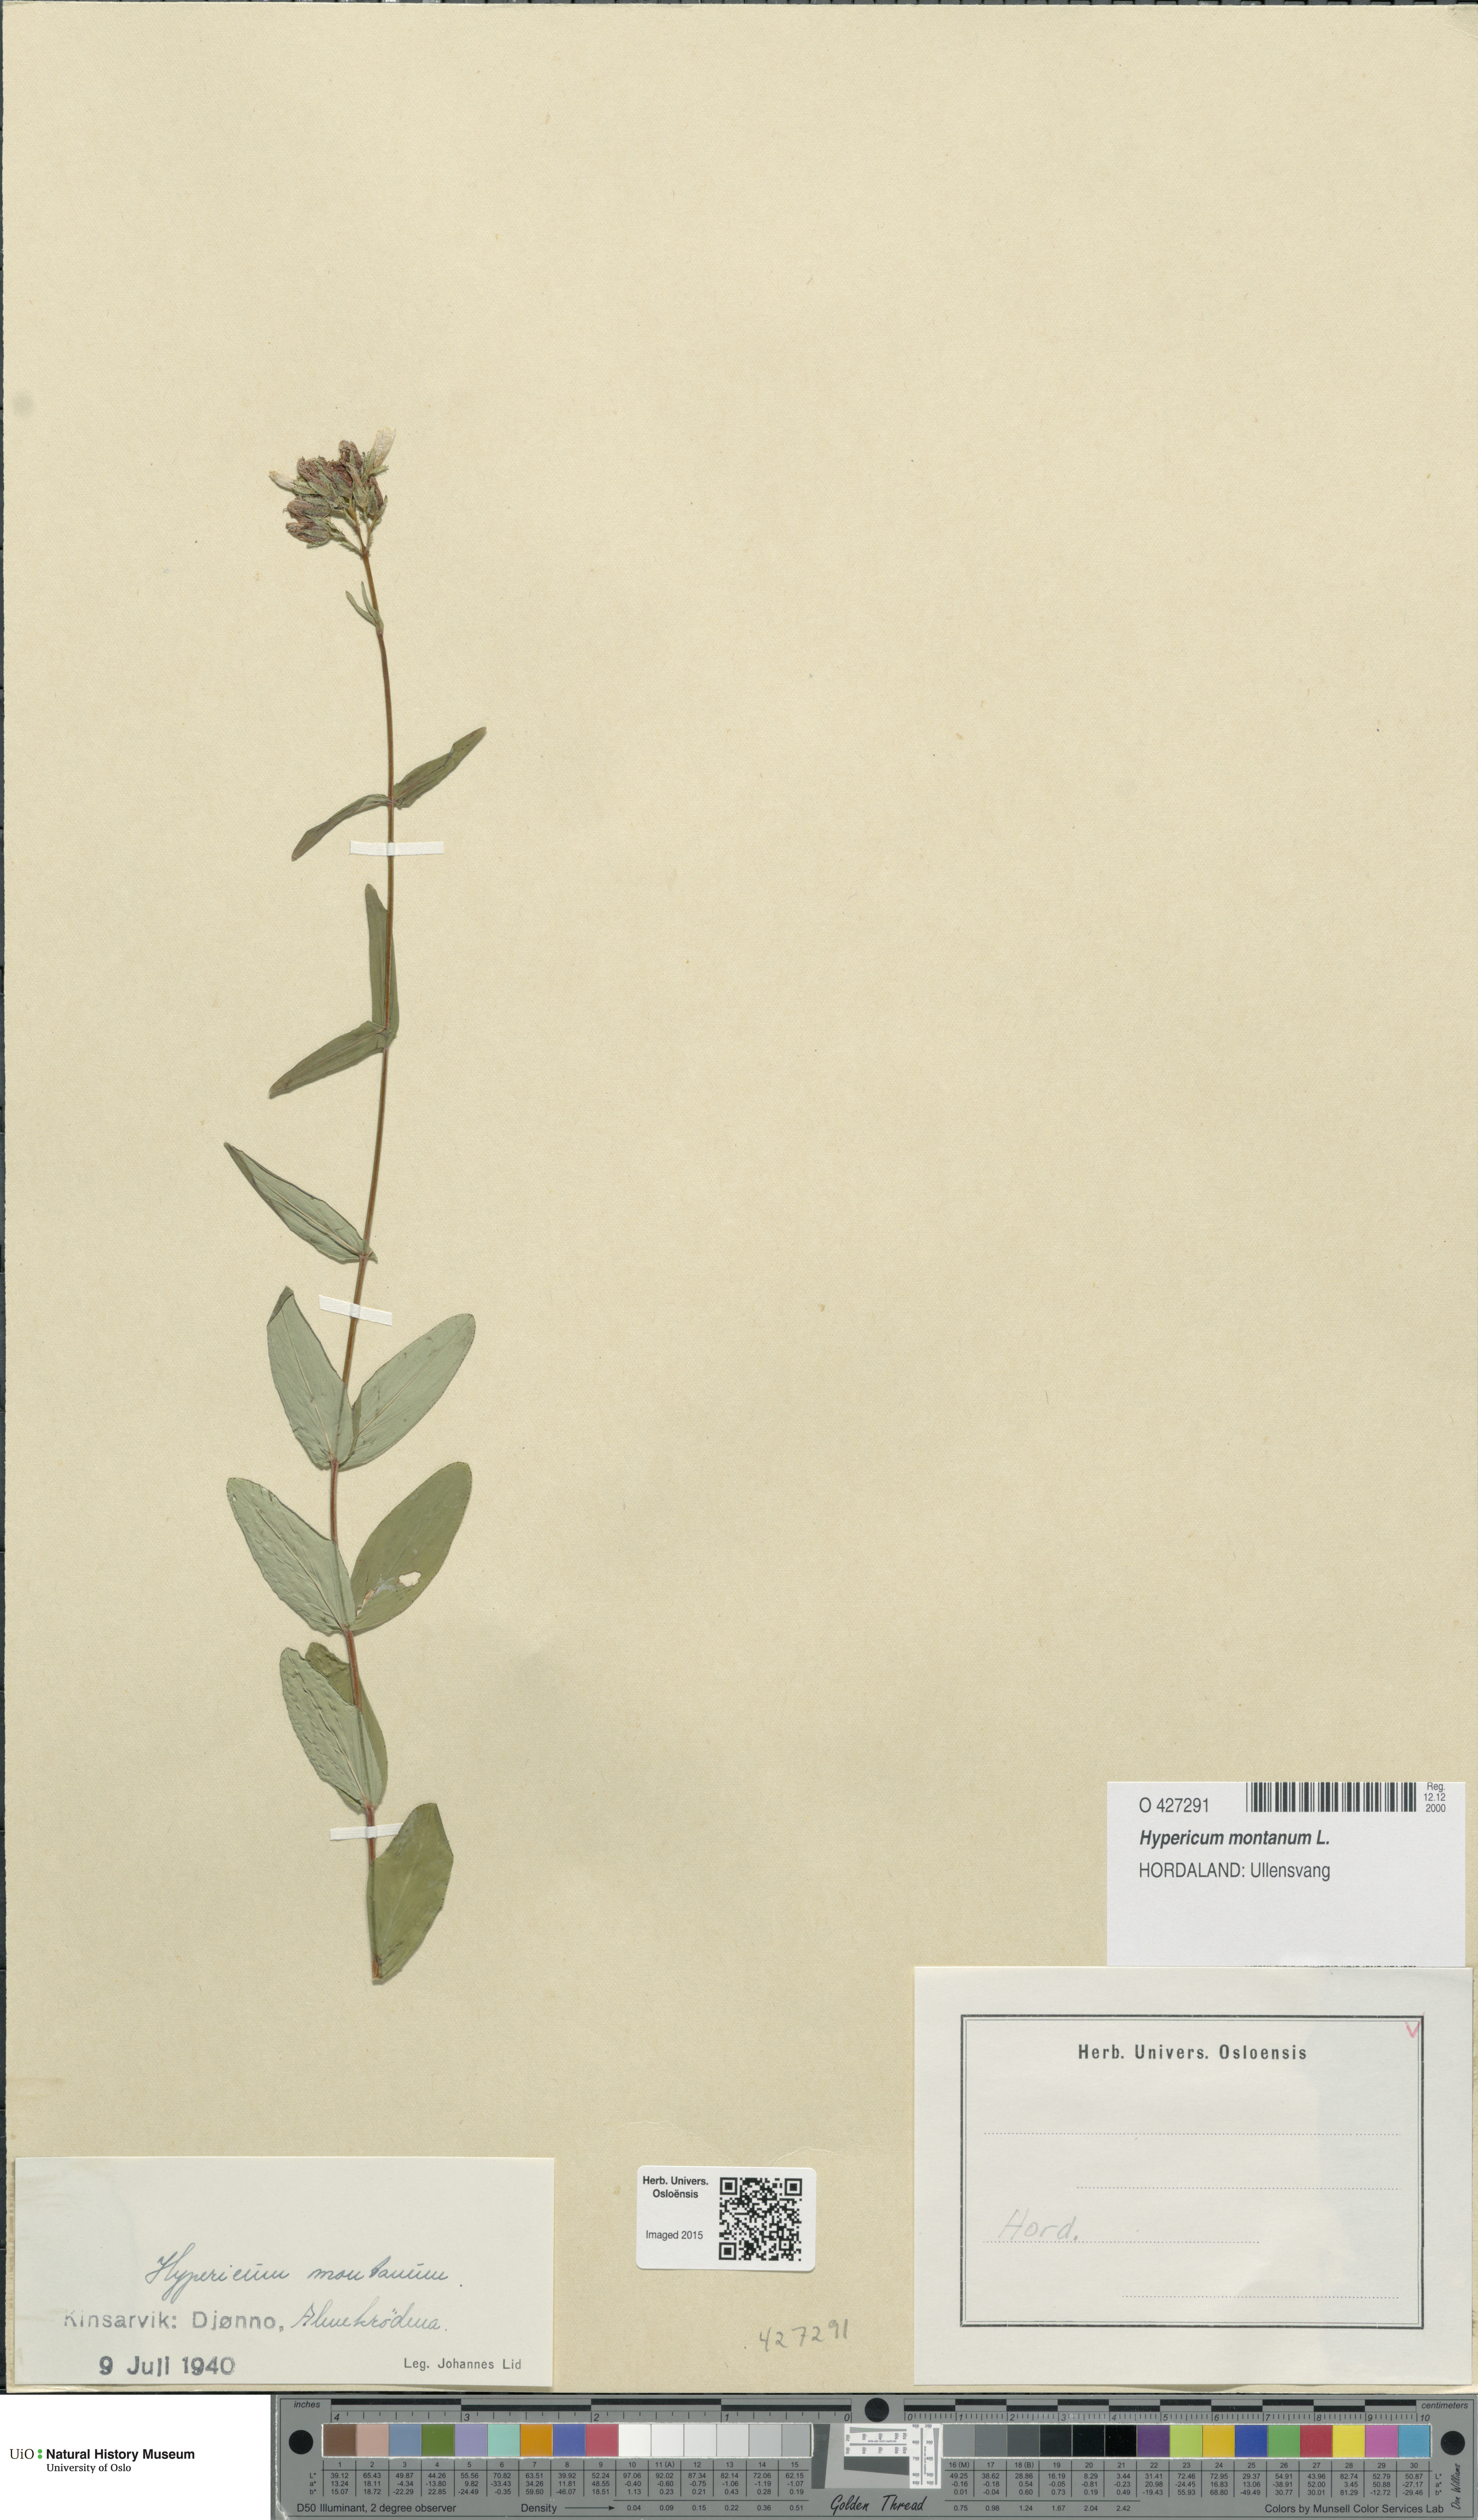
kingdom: Plantae
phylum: Tracheophyta
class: Magnoliopsida
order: Malpighiales
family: Hypericaceae
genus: Hypericum
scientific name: Hypericum montanum
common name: Pale st. john's-wort
